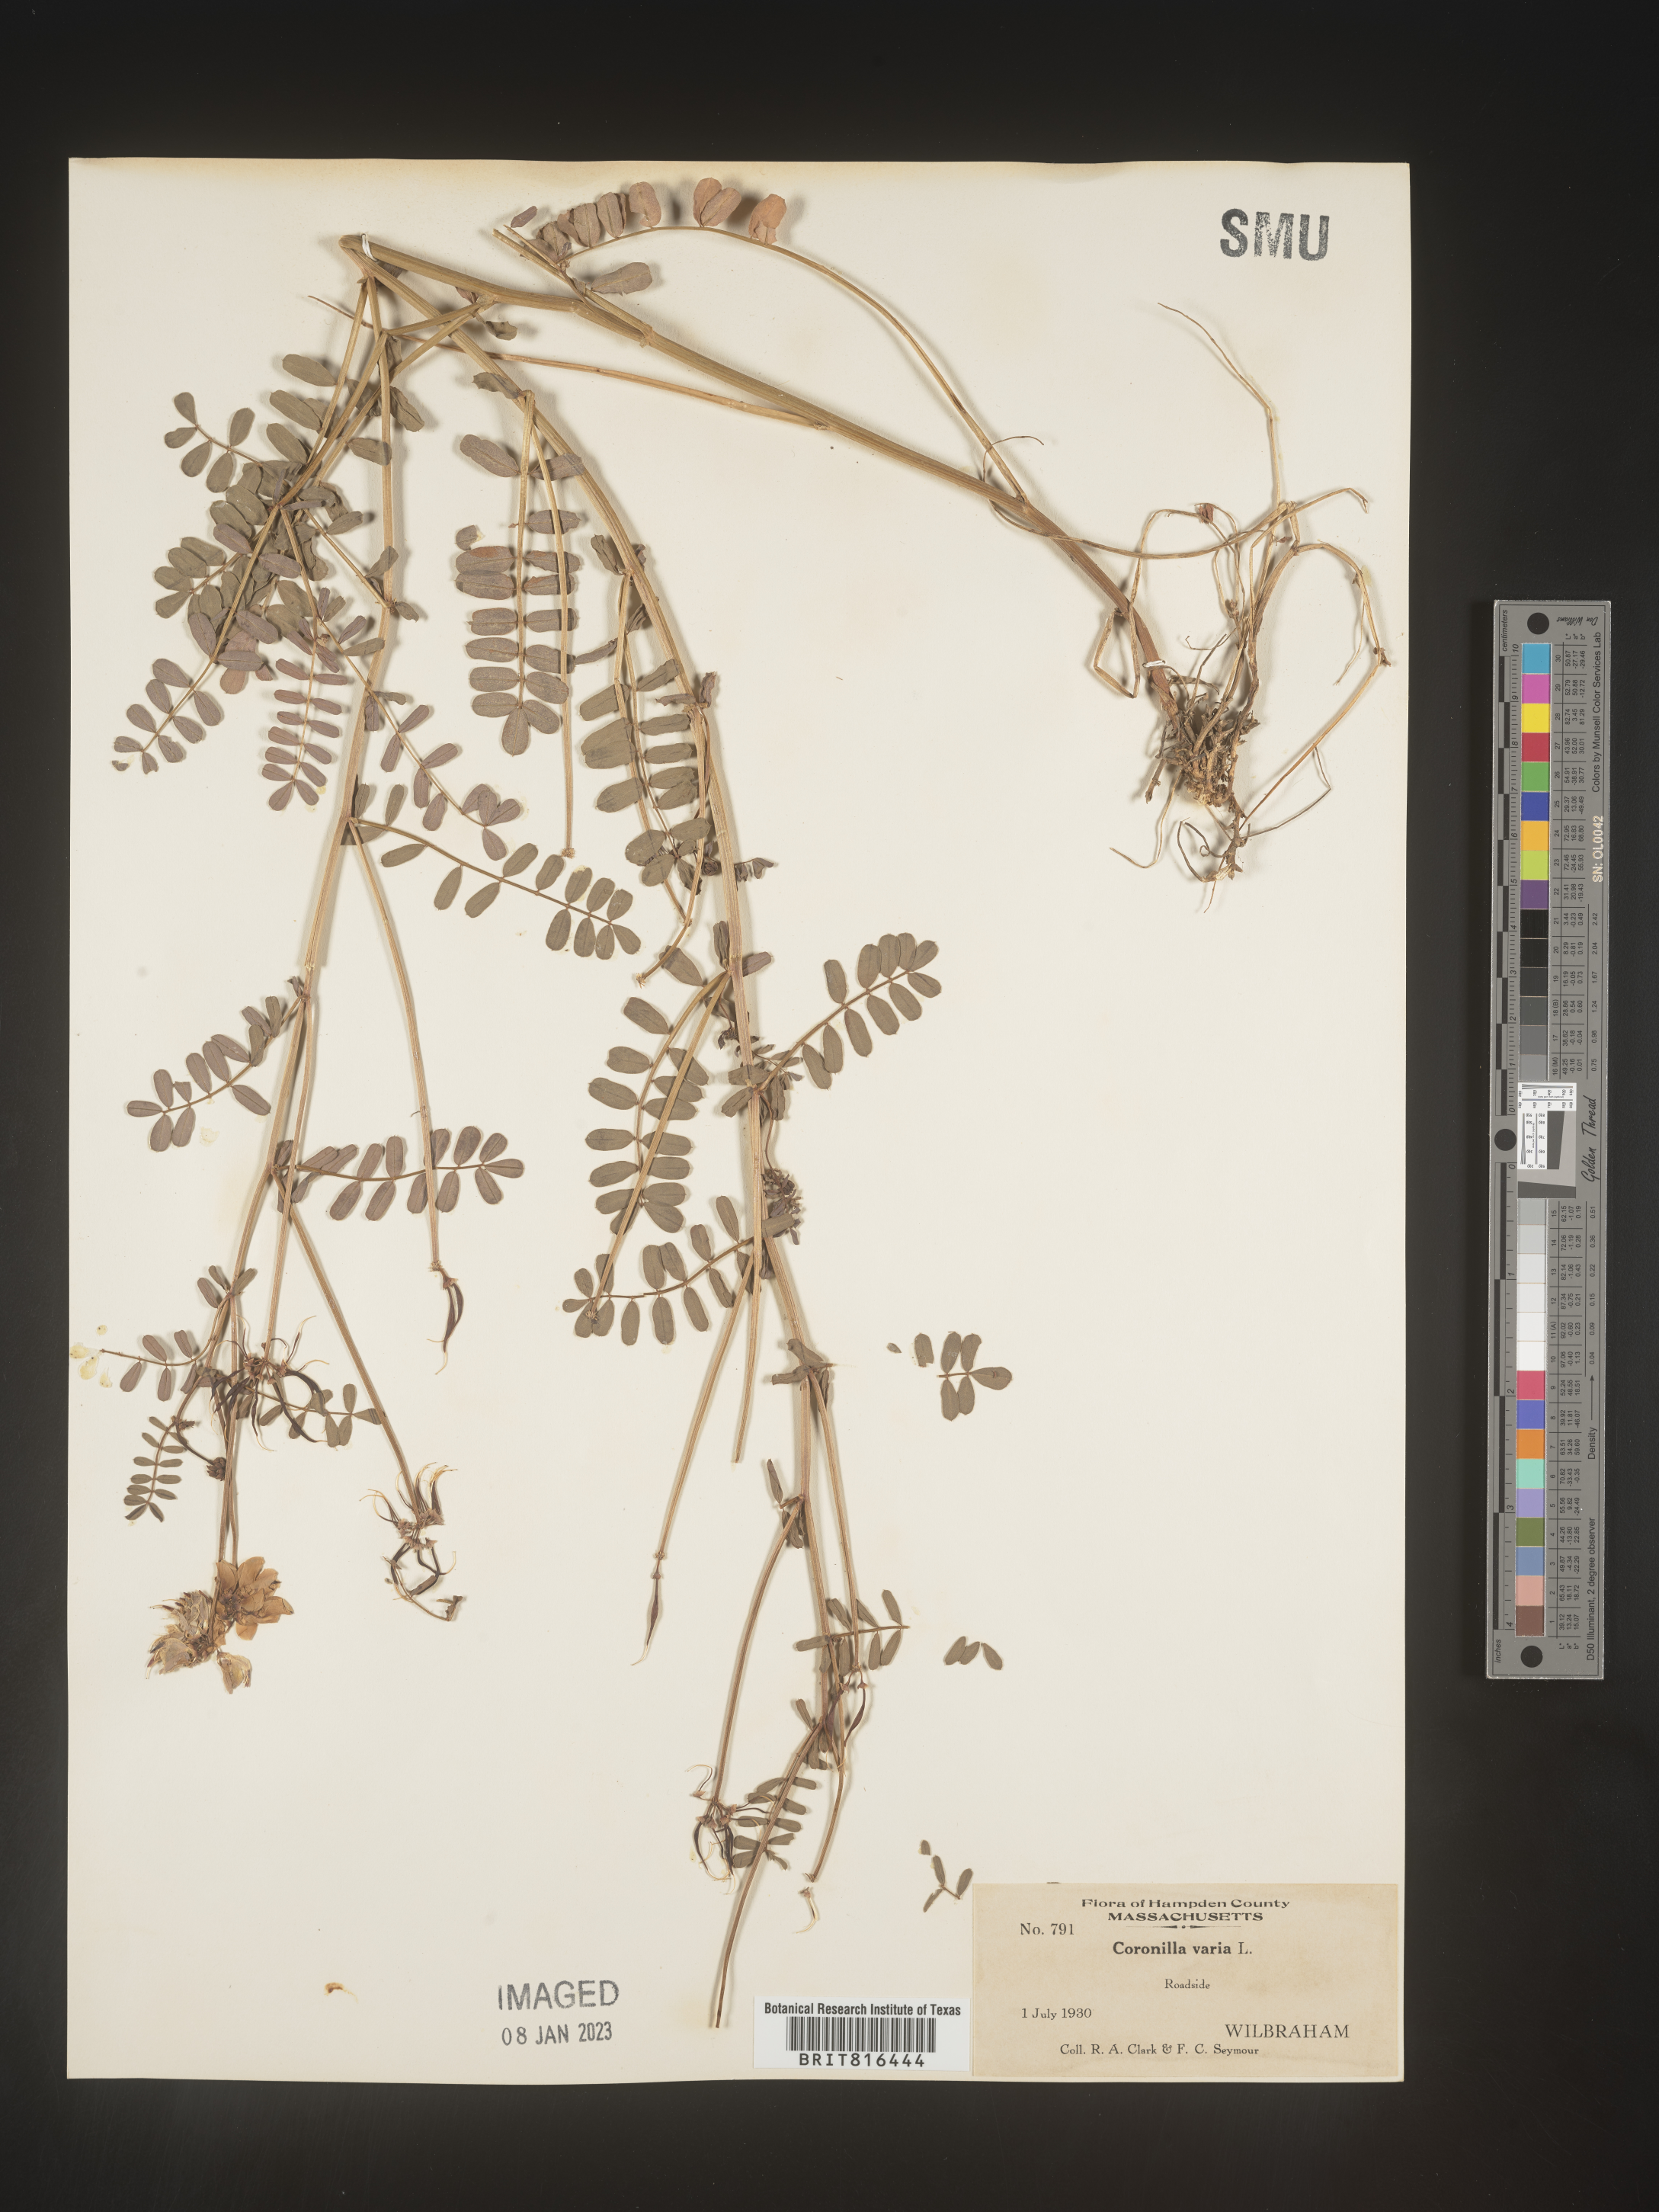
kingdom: Plantae
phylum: Tracheophyta
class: Magnoliopsida
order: Fabales
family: Fabaceae
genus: Coronilla
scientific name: Coronilla
